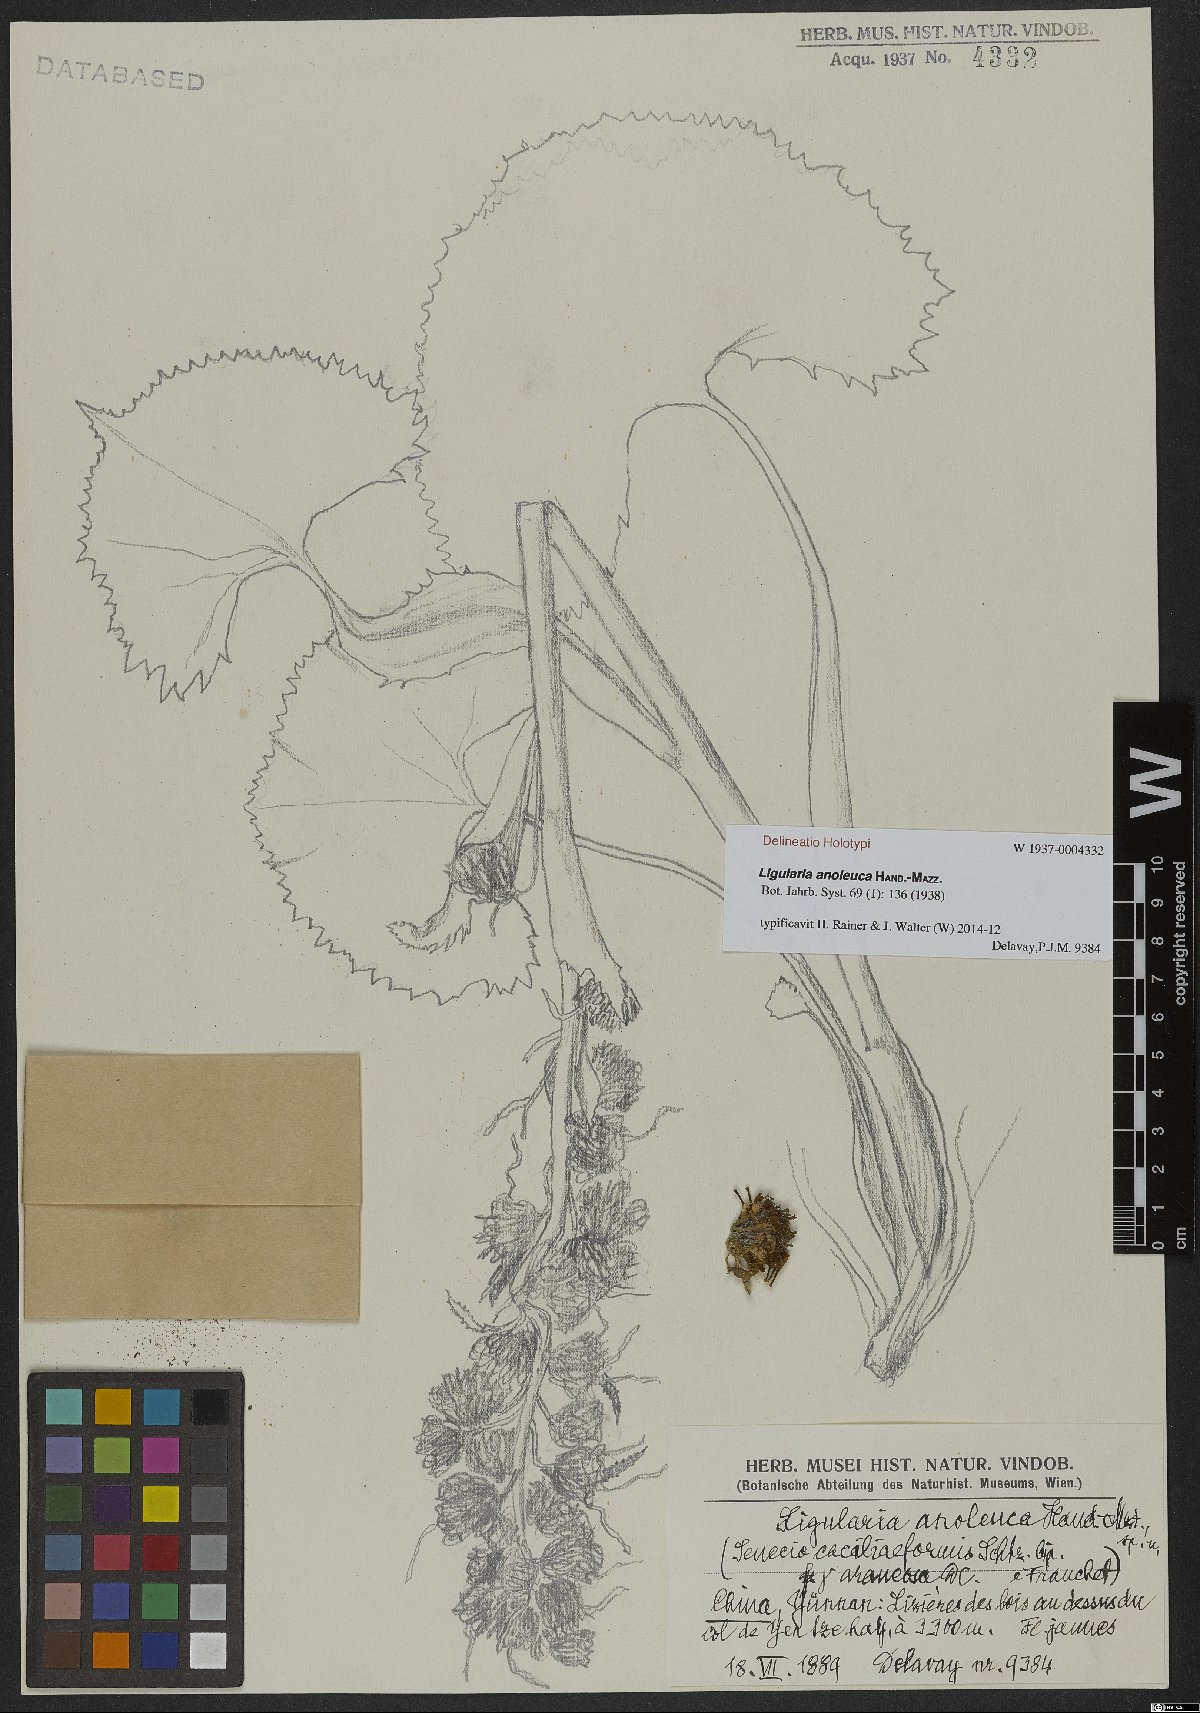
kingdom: Plantae
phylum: Tracheophyta
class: Magnoliopsida
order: Asterales
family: Asteraceae
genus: Ligularia
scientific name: Ligularia anoleuca
